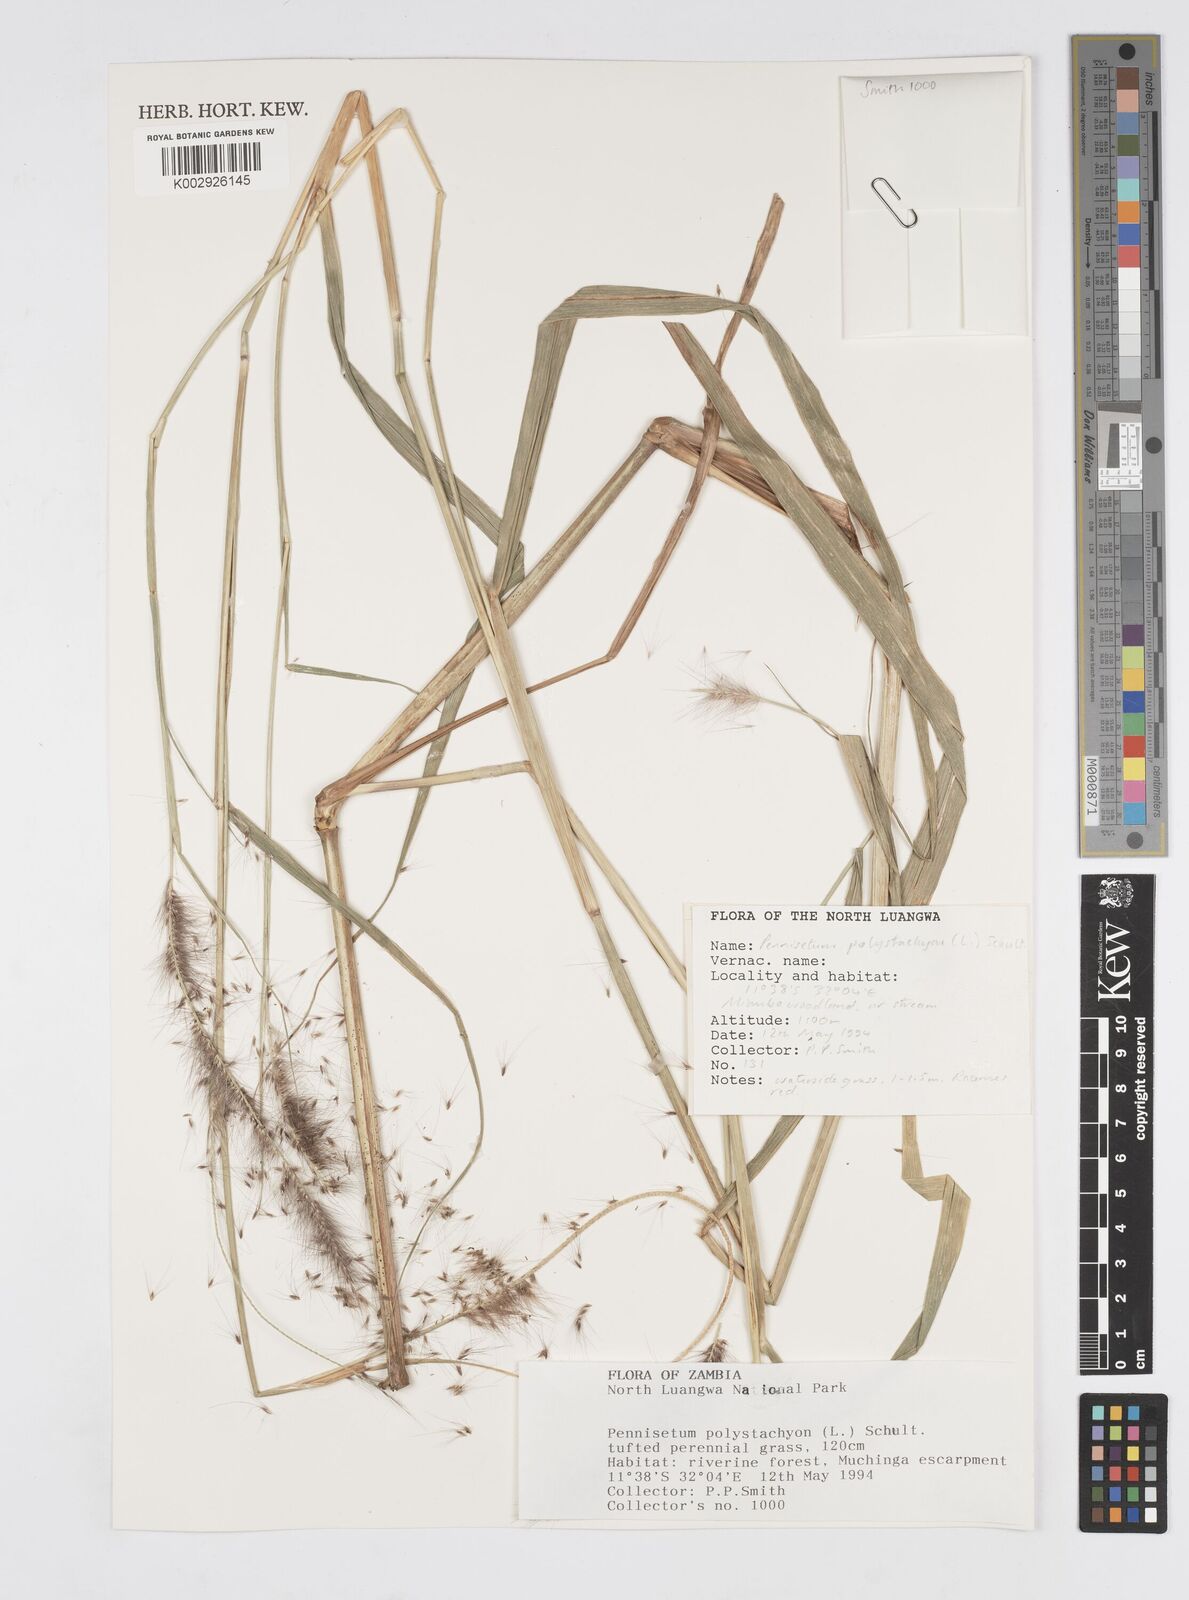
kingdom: Plantae
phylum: Tracheophyta
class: Liliopsida
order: Poales
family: Poaceae
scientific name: Poaceae
